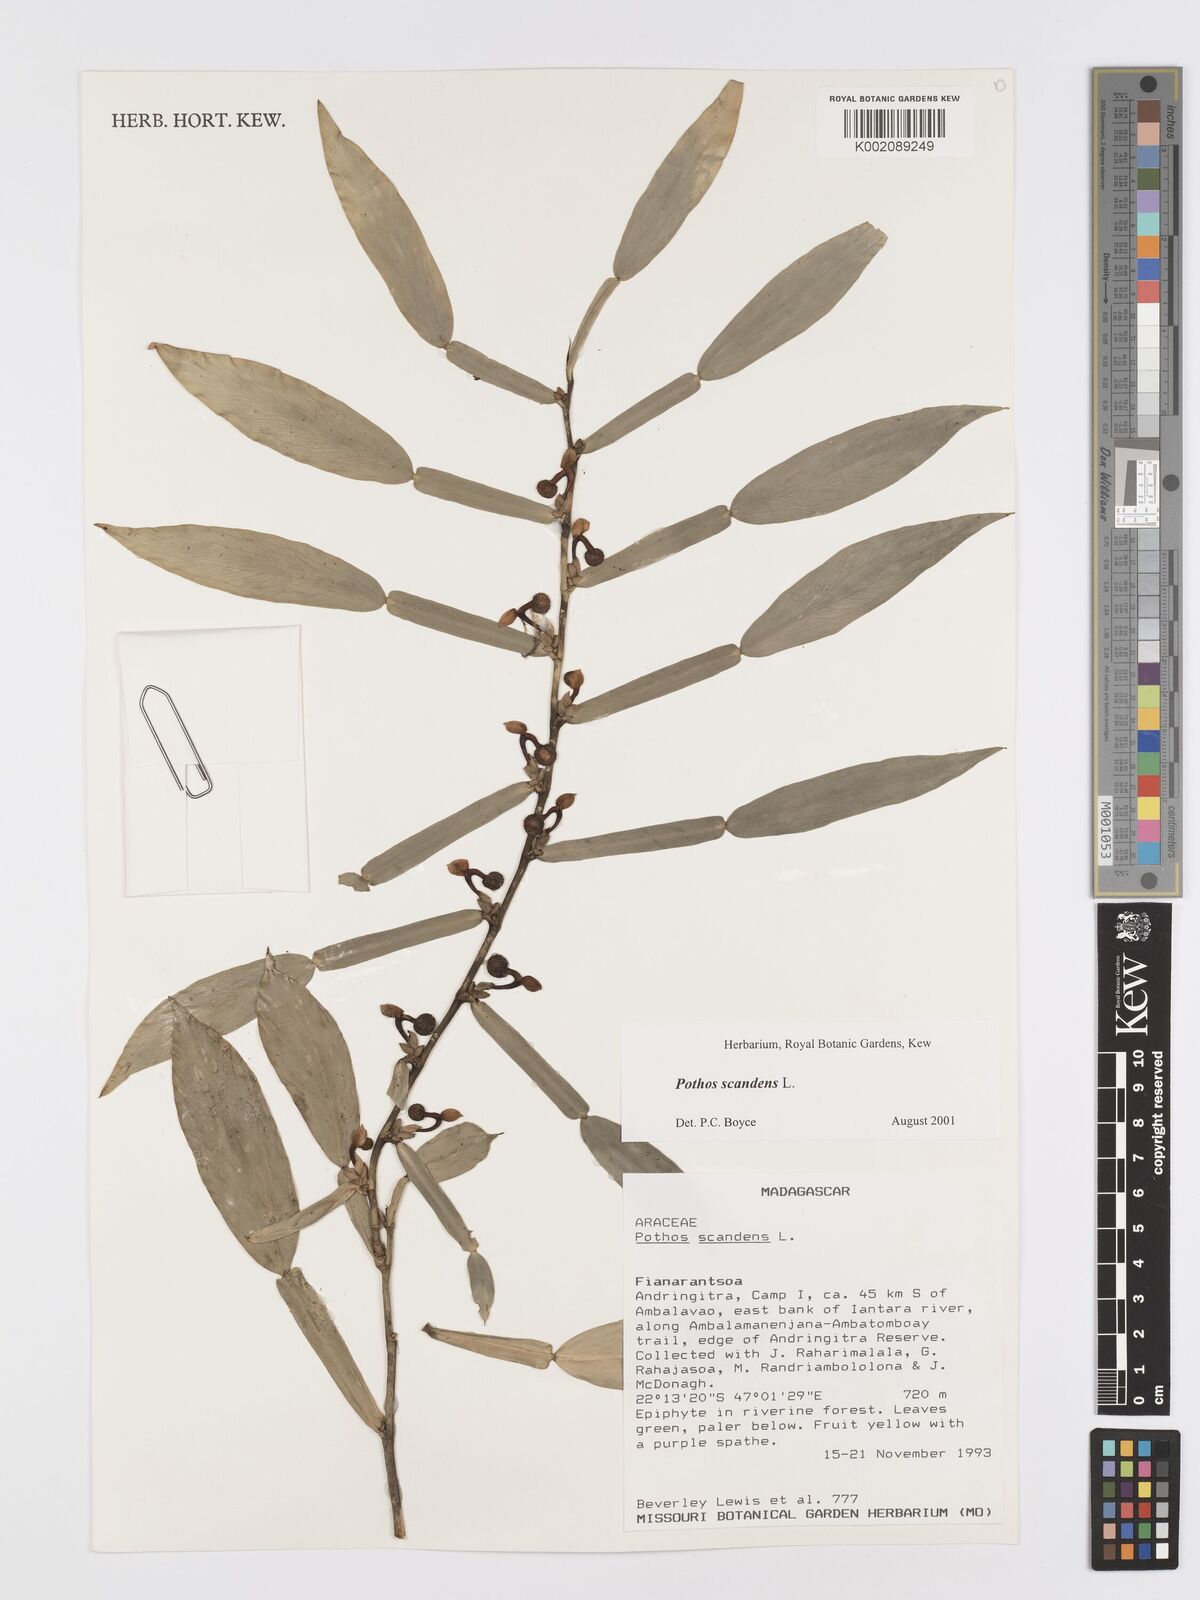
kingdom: Plantae
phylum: Tracheophyta
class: Liliopsida
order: Alismatales
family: Araceae
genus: Pothos
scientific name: Pothos scandens
